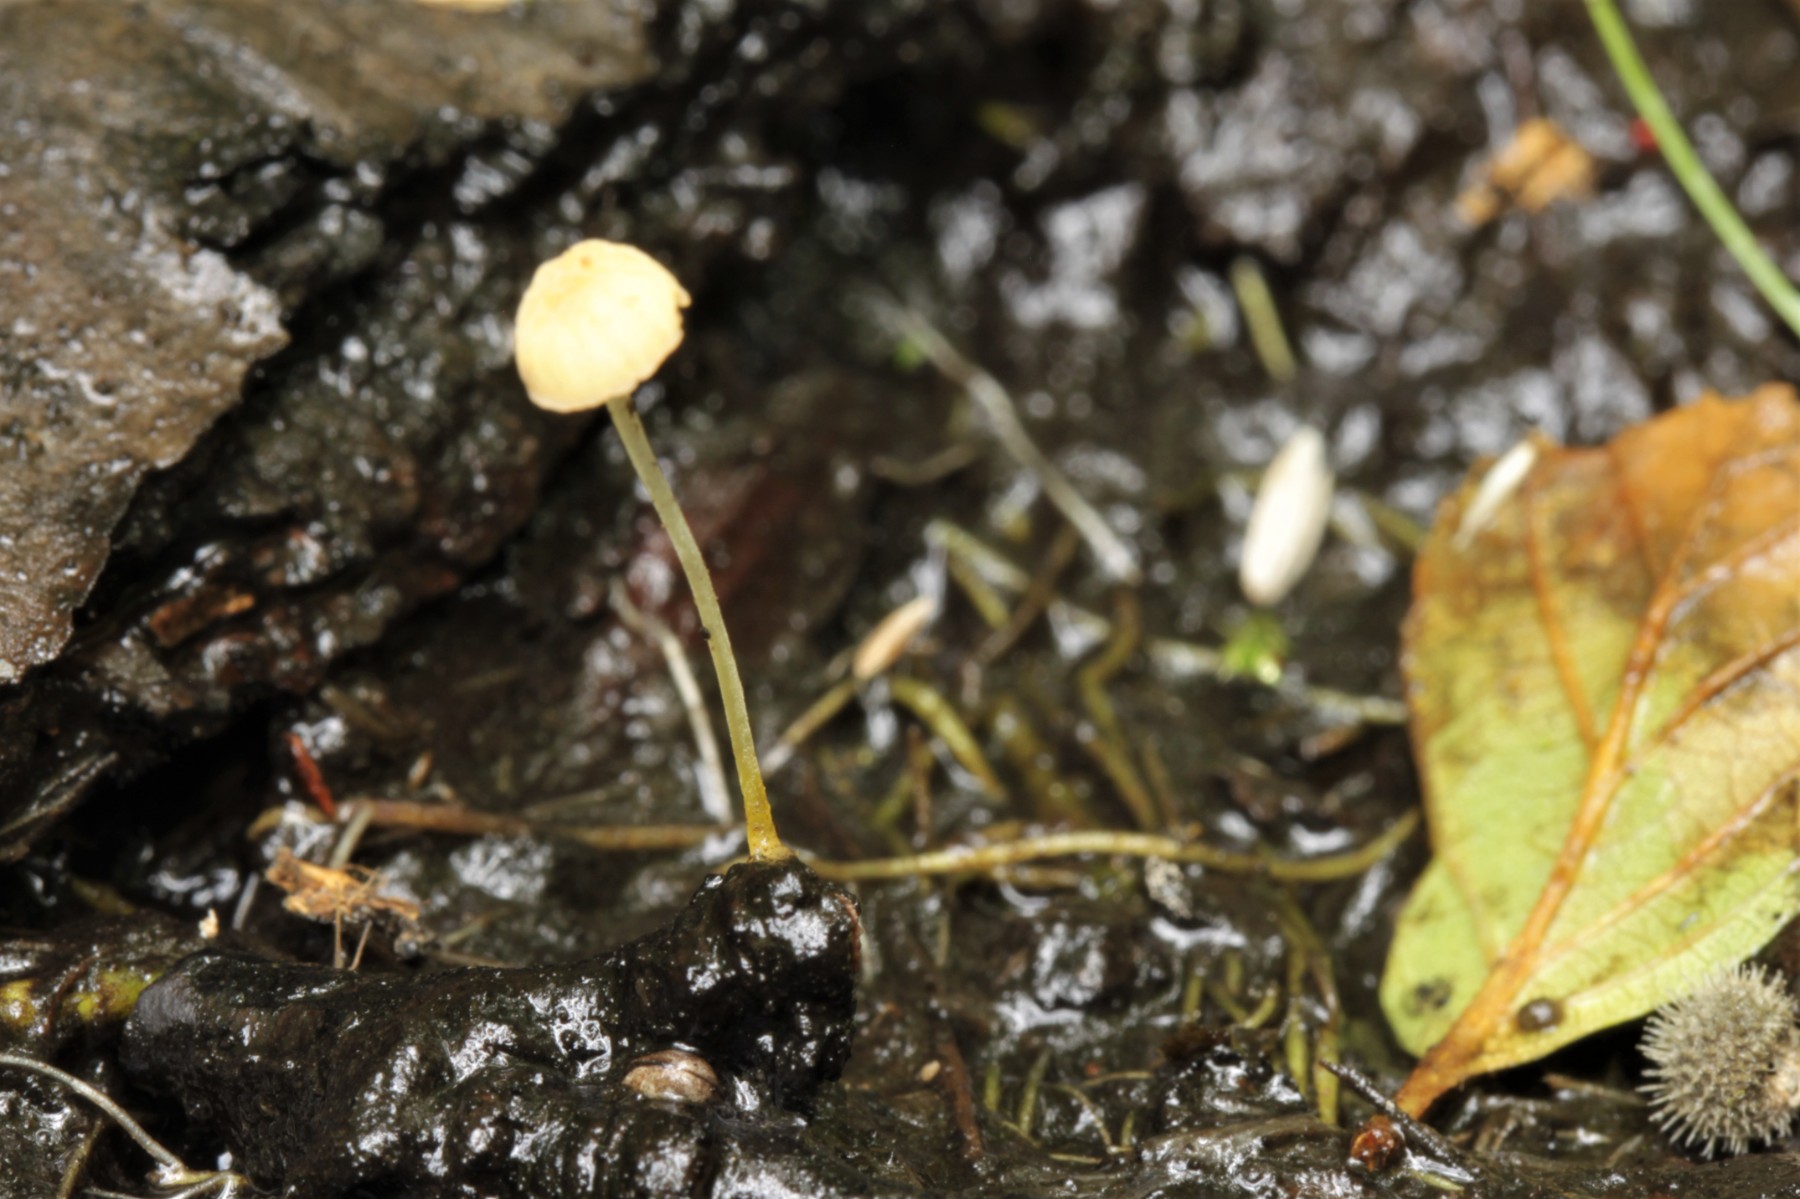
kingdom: Fungi
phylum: Basidiomycota
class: Agaricomycetes
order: Agaricales
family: Mycenaceae
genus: Mycena
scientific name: Mycena acicula
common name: orange huesvamp
